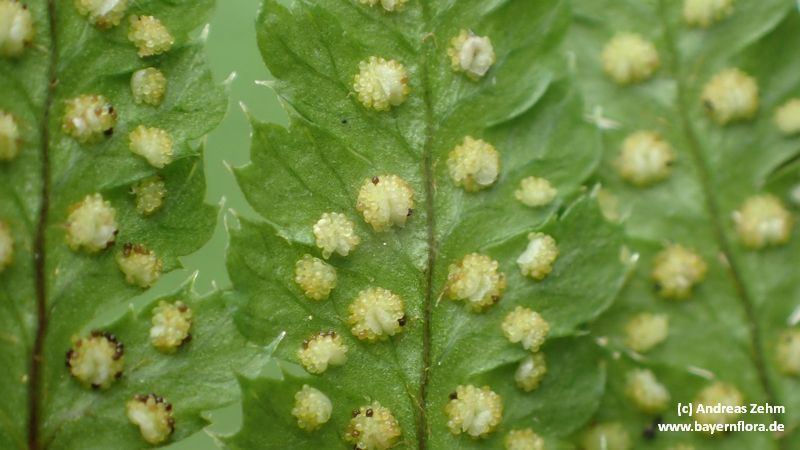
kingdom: Plantae
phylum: Tracheophyta
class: Polypodiopsida
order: Polypodiales
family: Dryopteridaceae
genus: Dryopteris
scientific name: Dryopteris
